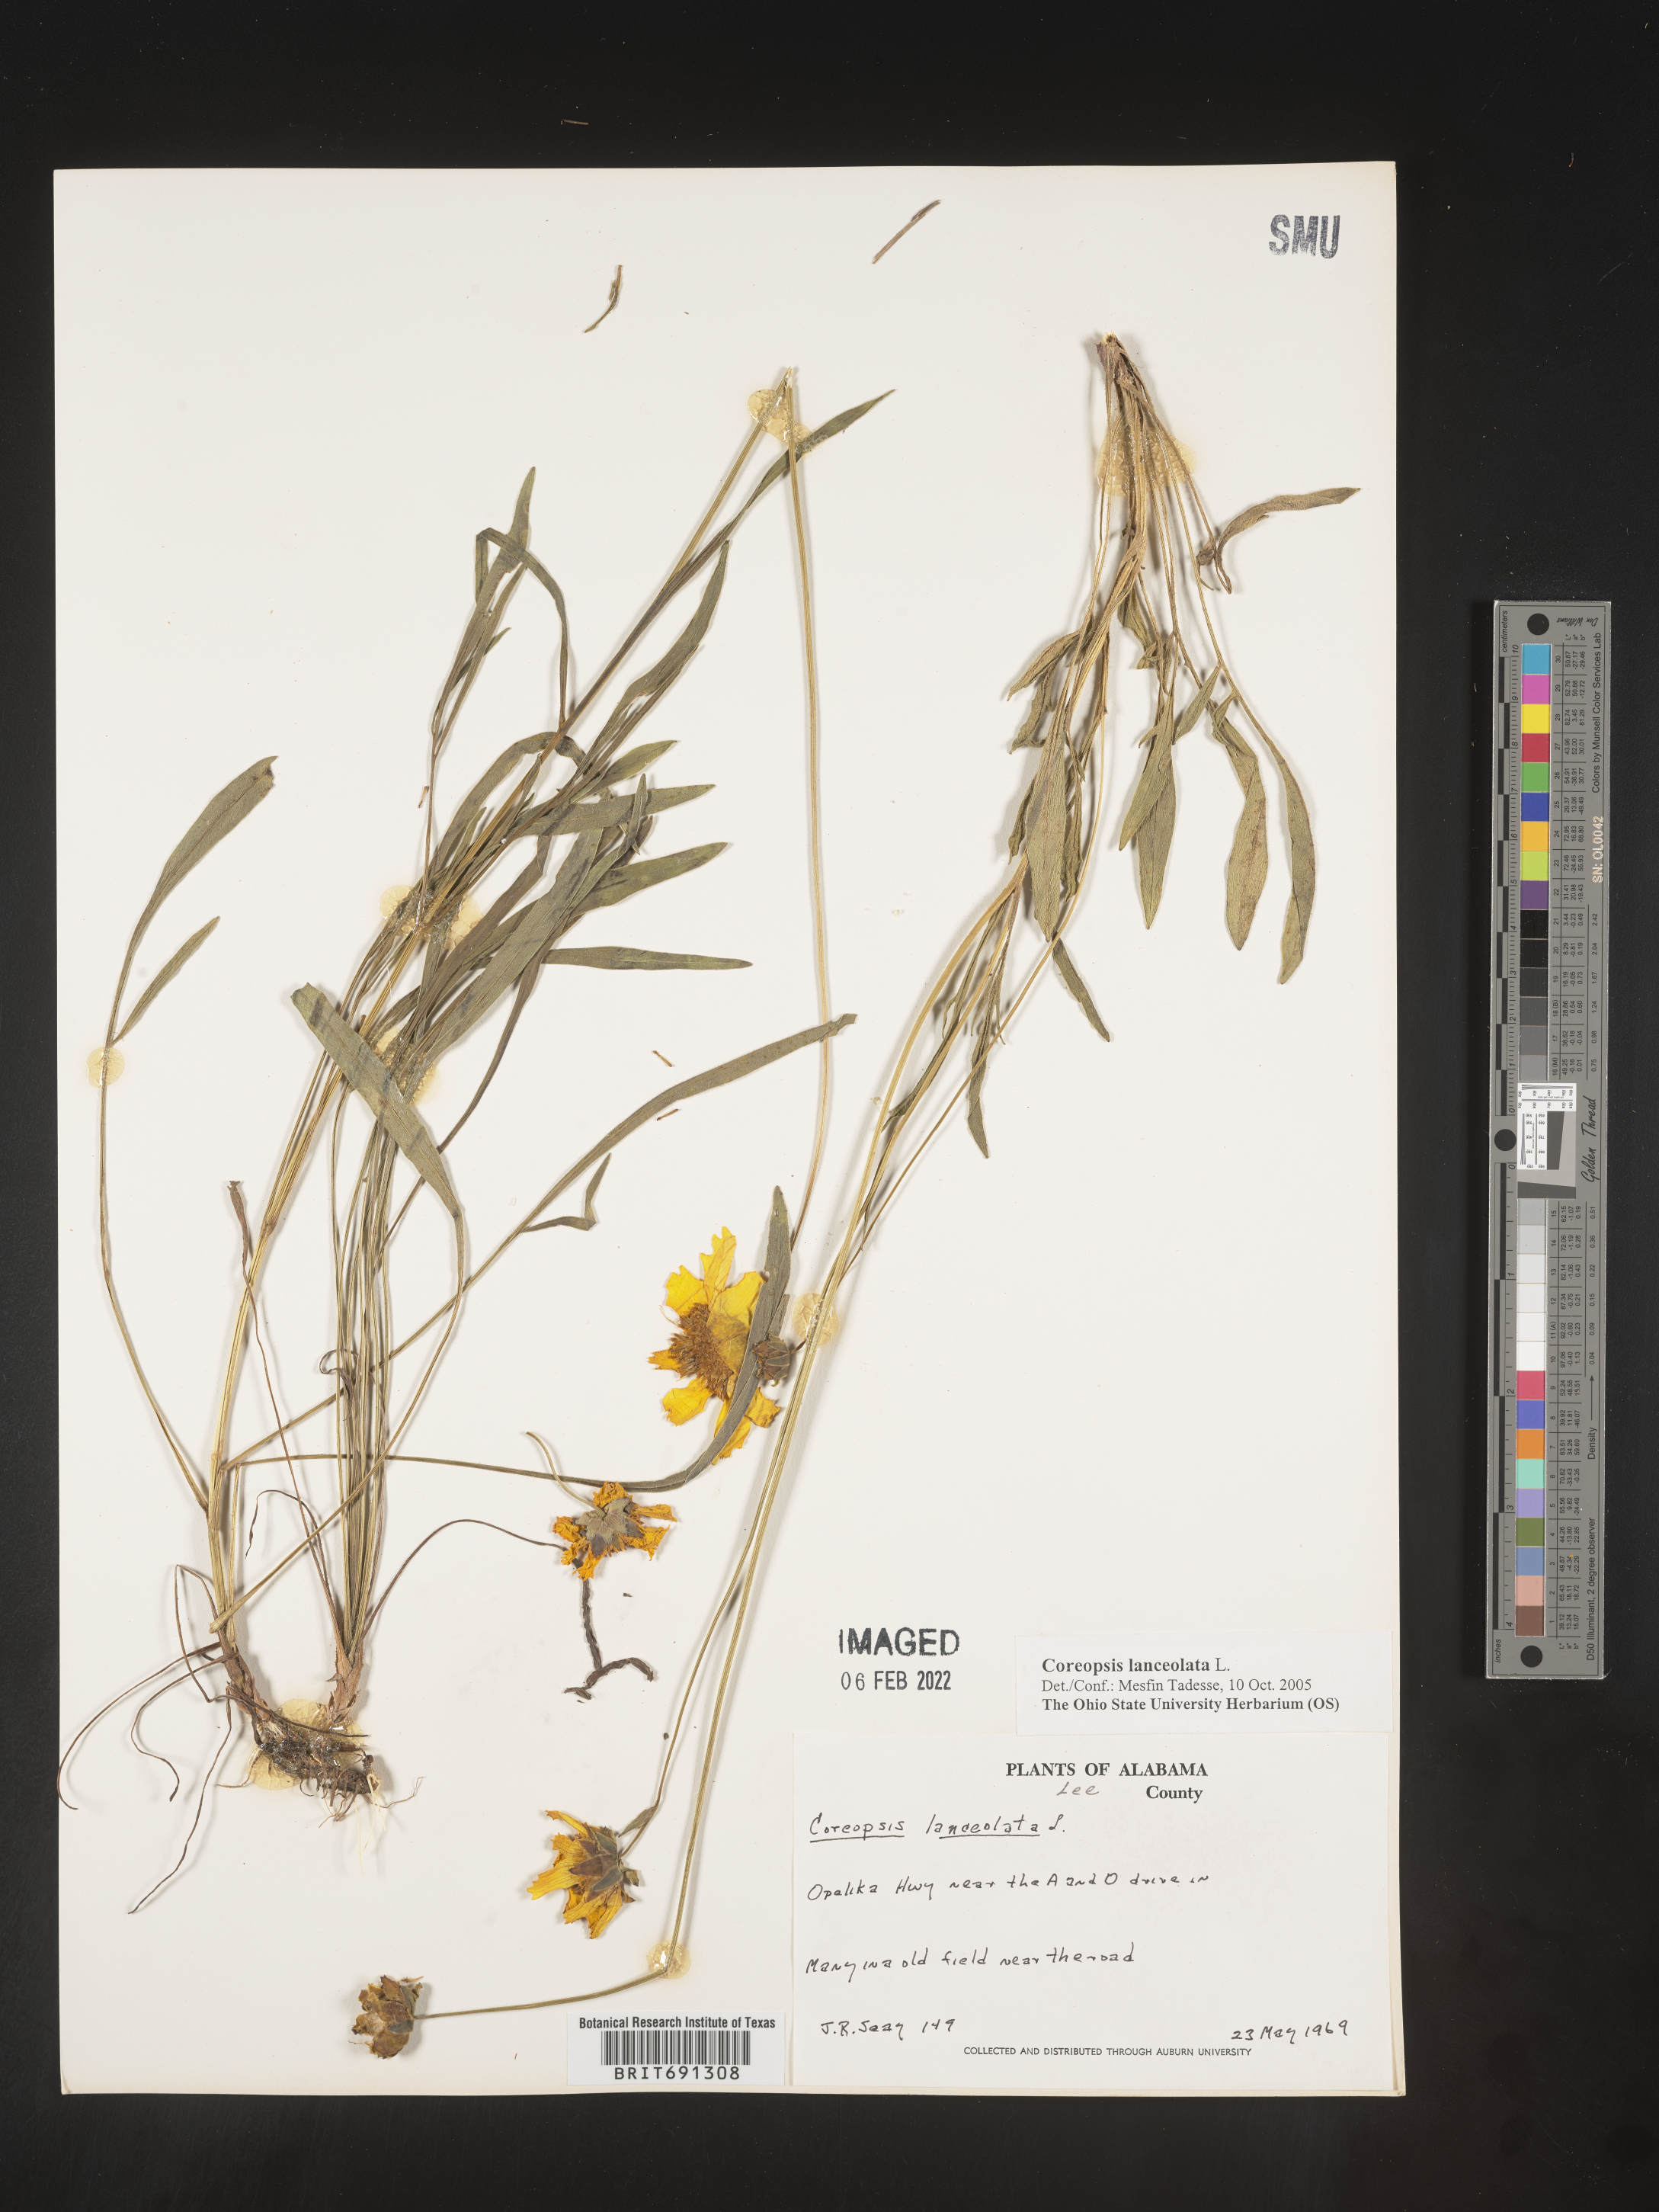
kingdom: Plantae
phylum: Tracheophyta
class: Magnoliopsida
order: Asterales
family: Asteraceae
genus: Coreopsis
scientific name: Coreopsis lanceolata
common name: Garden coreopsis
